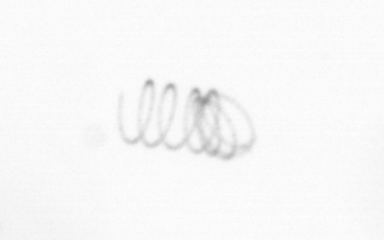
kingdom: Chromista
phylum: Ochrophyta
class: Bacillariophyceae
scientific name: Bacillariophyceae
